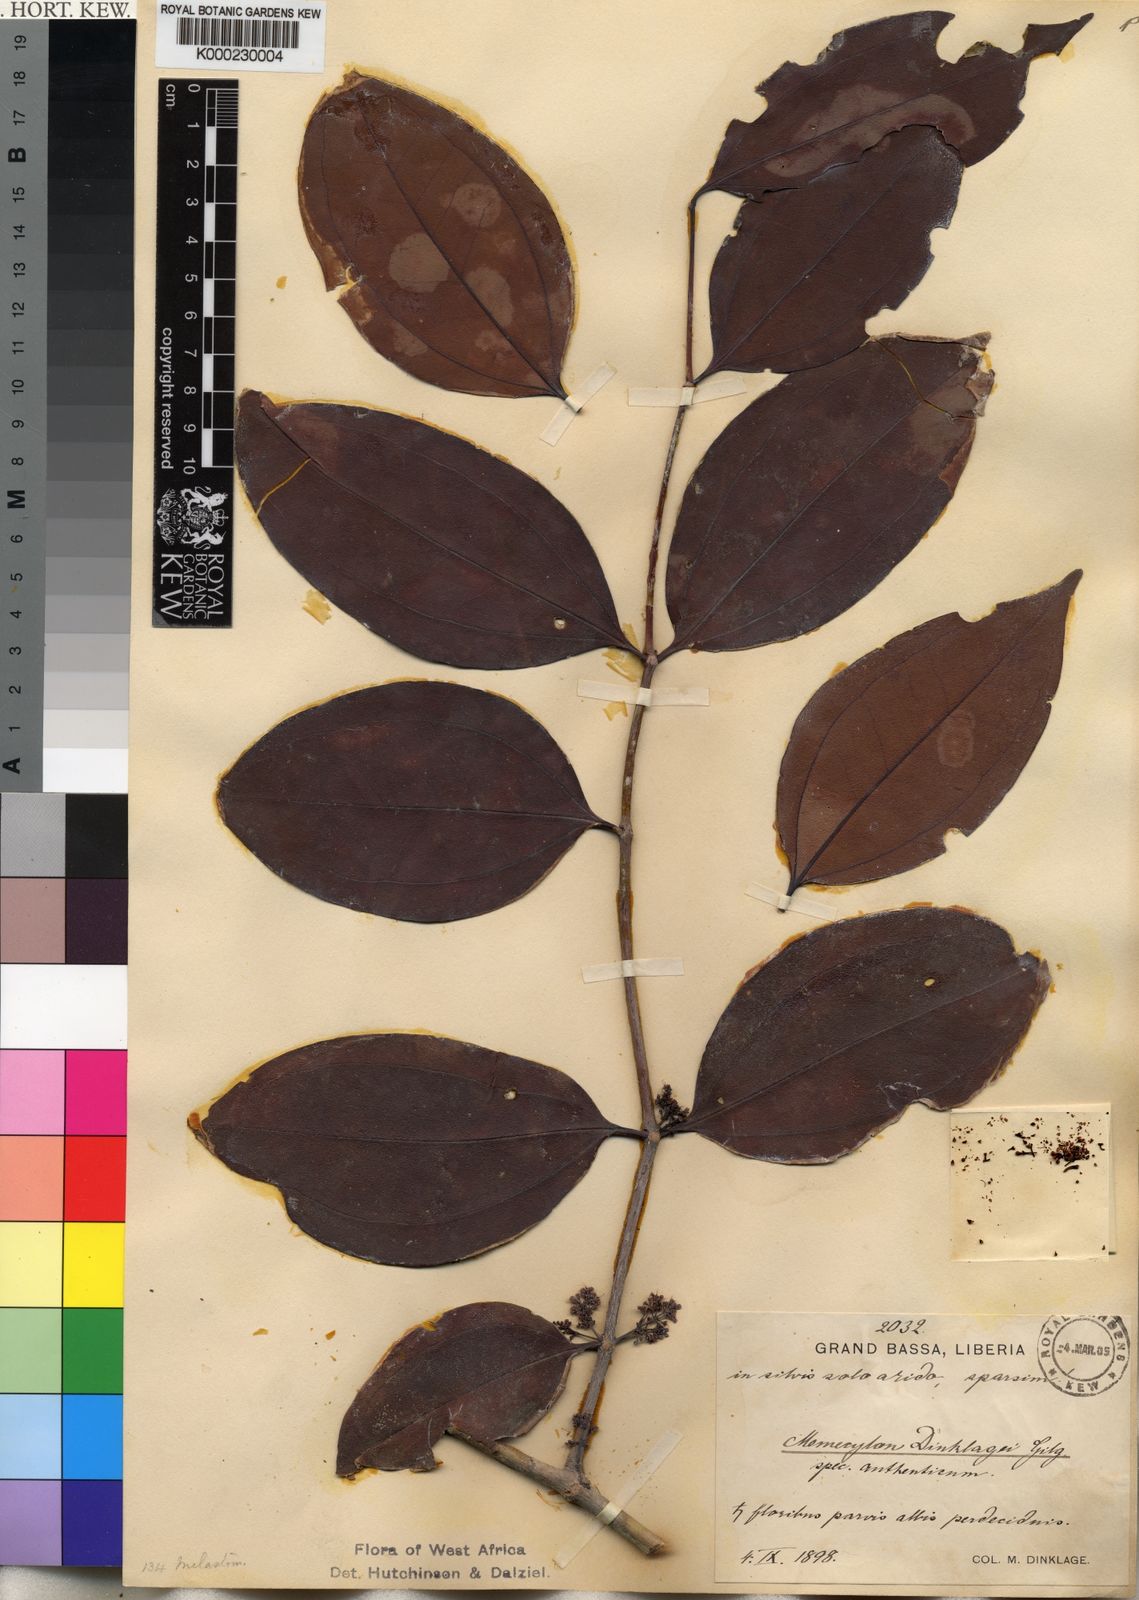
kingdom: Plantae
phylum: Tracheophyta
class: Magnoliopsida
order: Myrtales
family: Melastomataceae
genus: Lijndenia
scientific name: Lijndenia barteri
